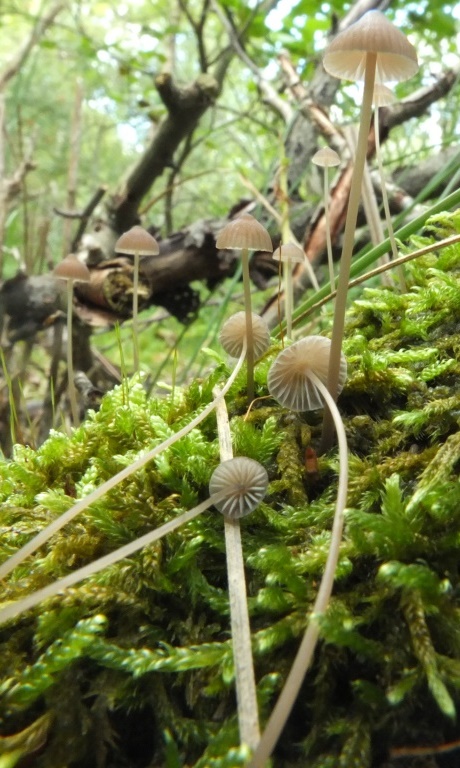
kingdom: Fungi
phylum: Basidiomycota
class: Agaricomycetes
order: Agaricales
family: Mycenaceae
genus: Mycena
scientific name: Mycena filopes
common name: jod-huesvamp
